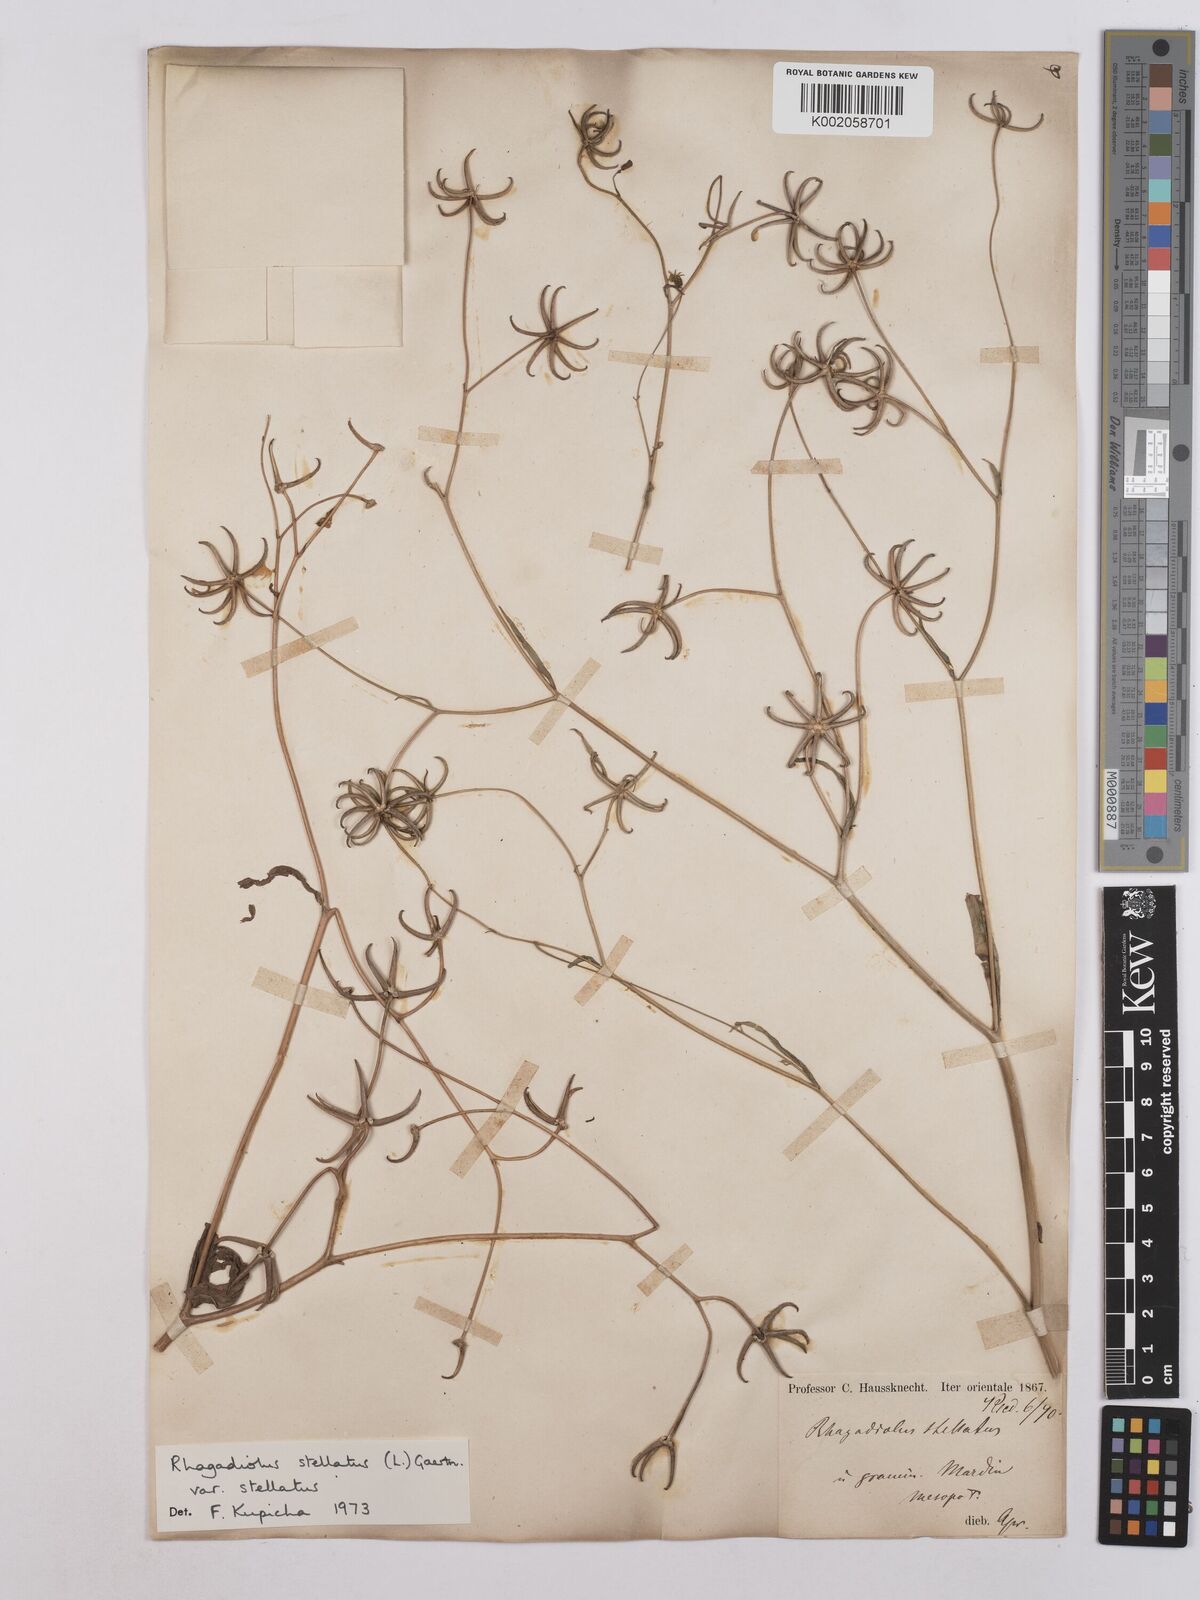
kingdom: Plantae
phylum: Tracheophyta
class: Magnoliopsida
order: Asterales
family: Asteraceae
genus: Rhagadiolus
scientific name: Rhagadiolus stellatus
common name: Star hawkbit
